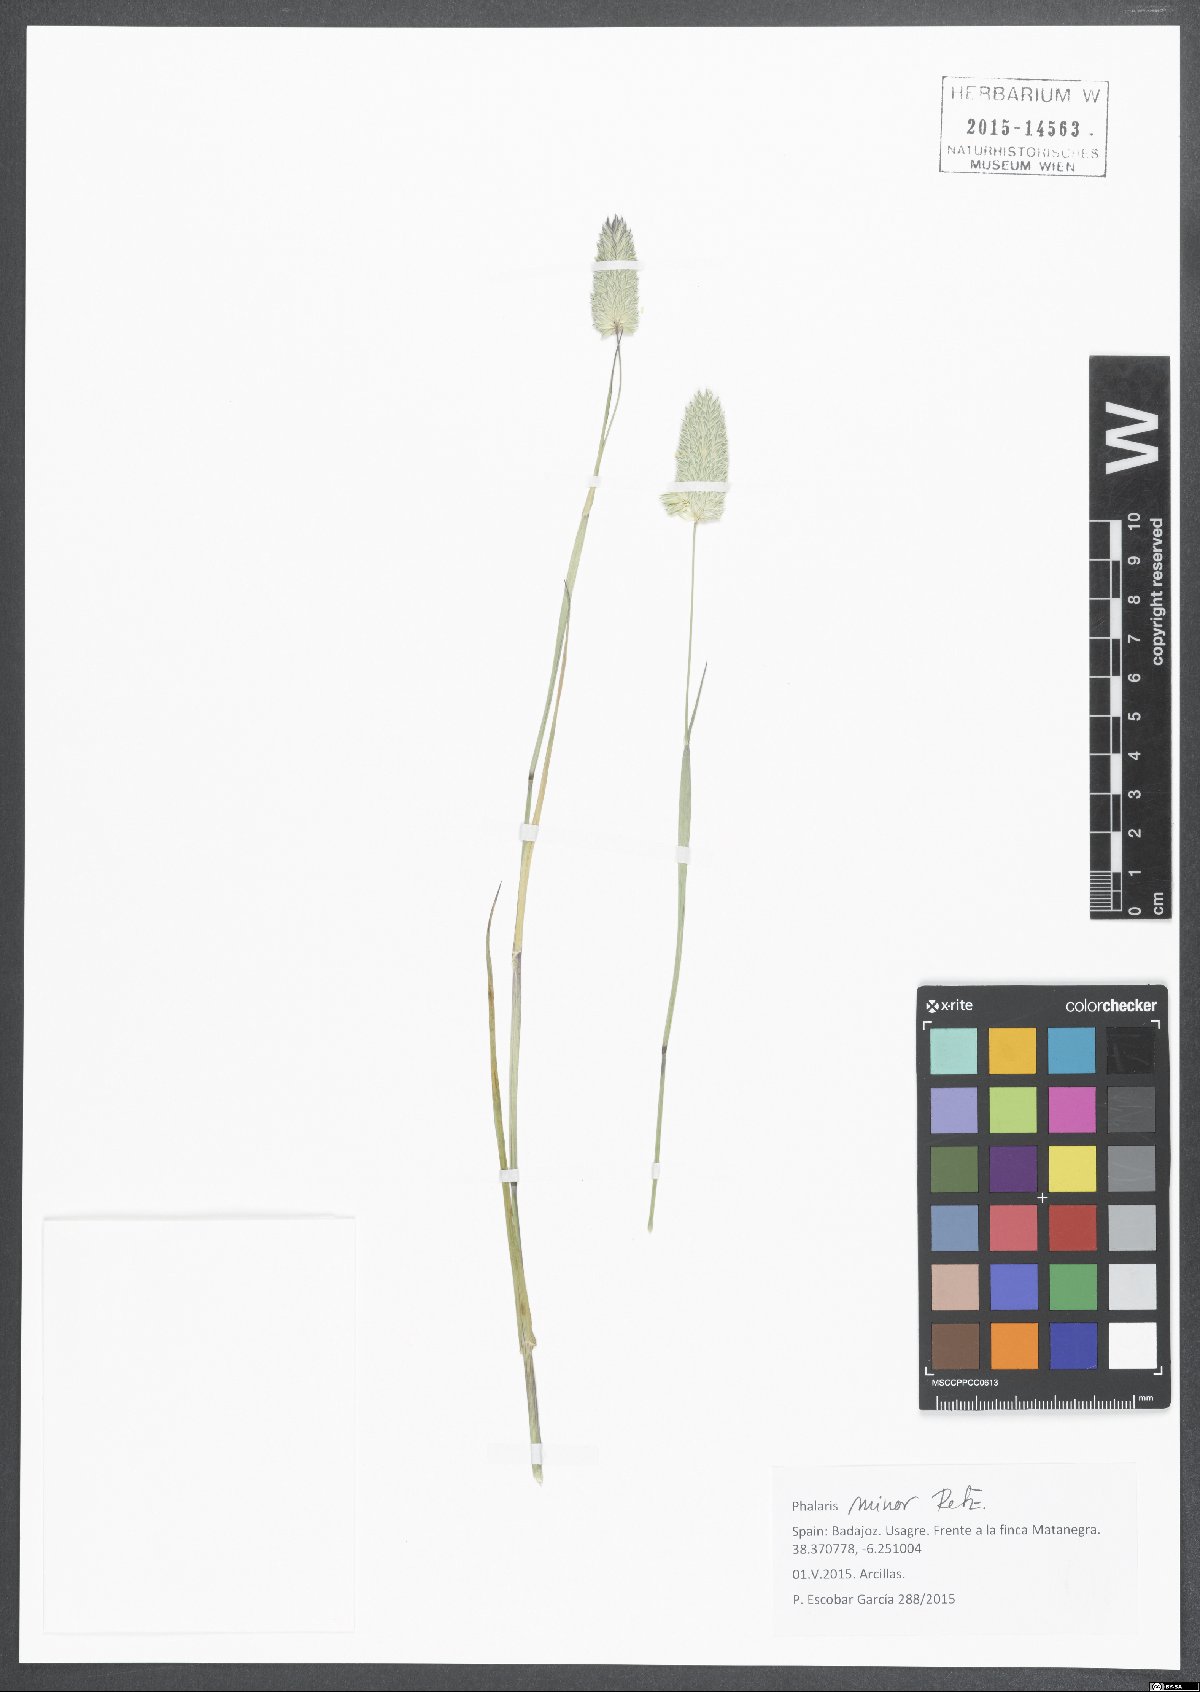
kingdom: Plantae
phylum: Tracheophyta
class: Liliopsida
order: Poales
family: Poaceae
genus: Phalaris
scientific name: Phalaris minor
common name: Littleseed canarygrass
